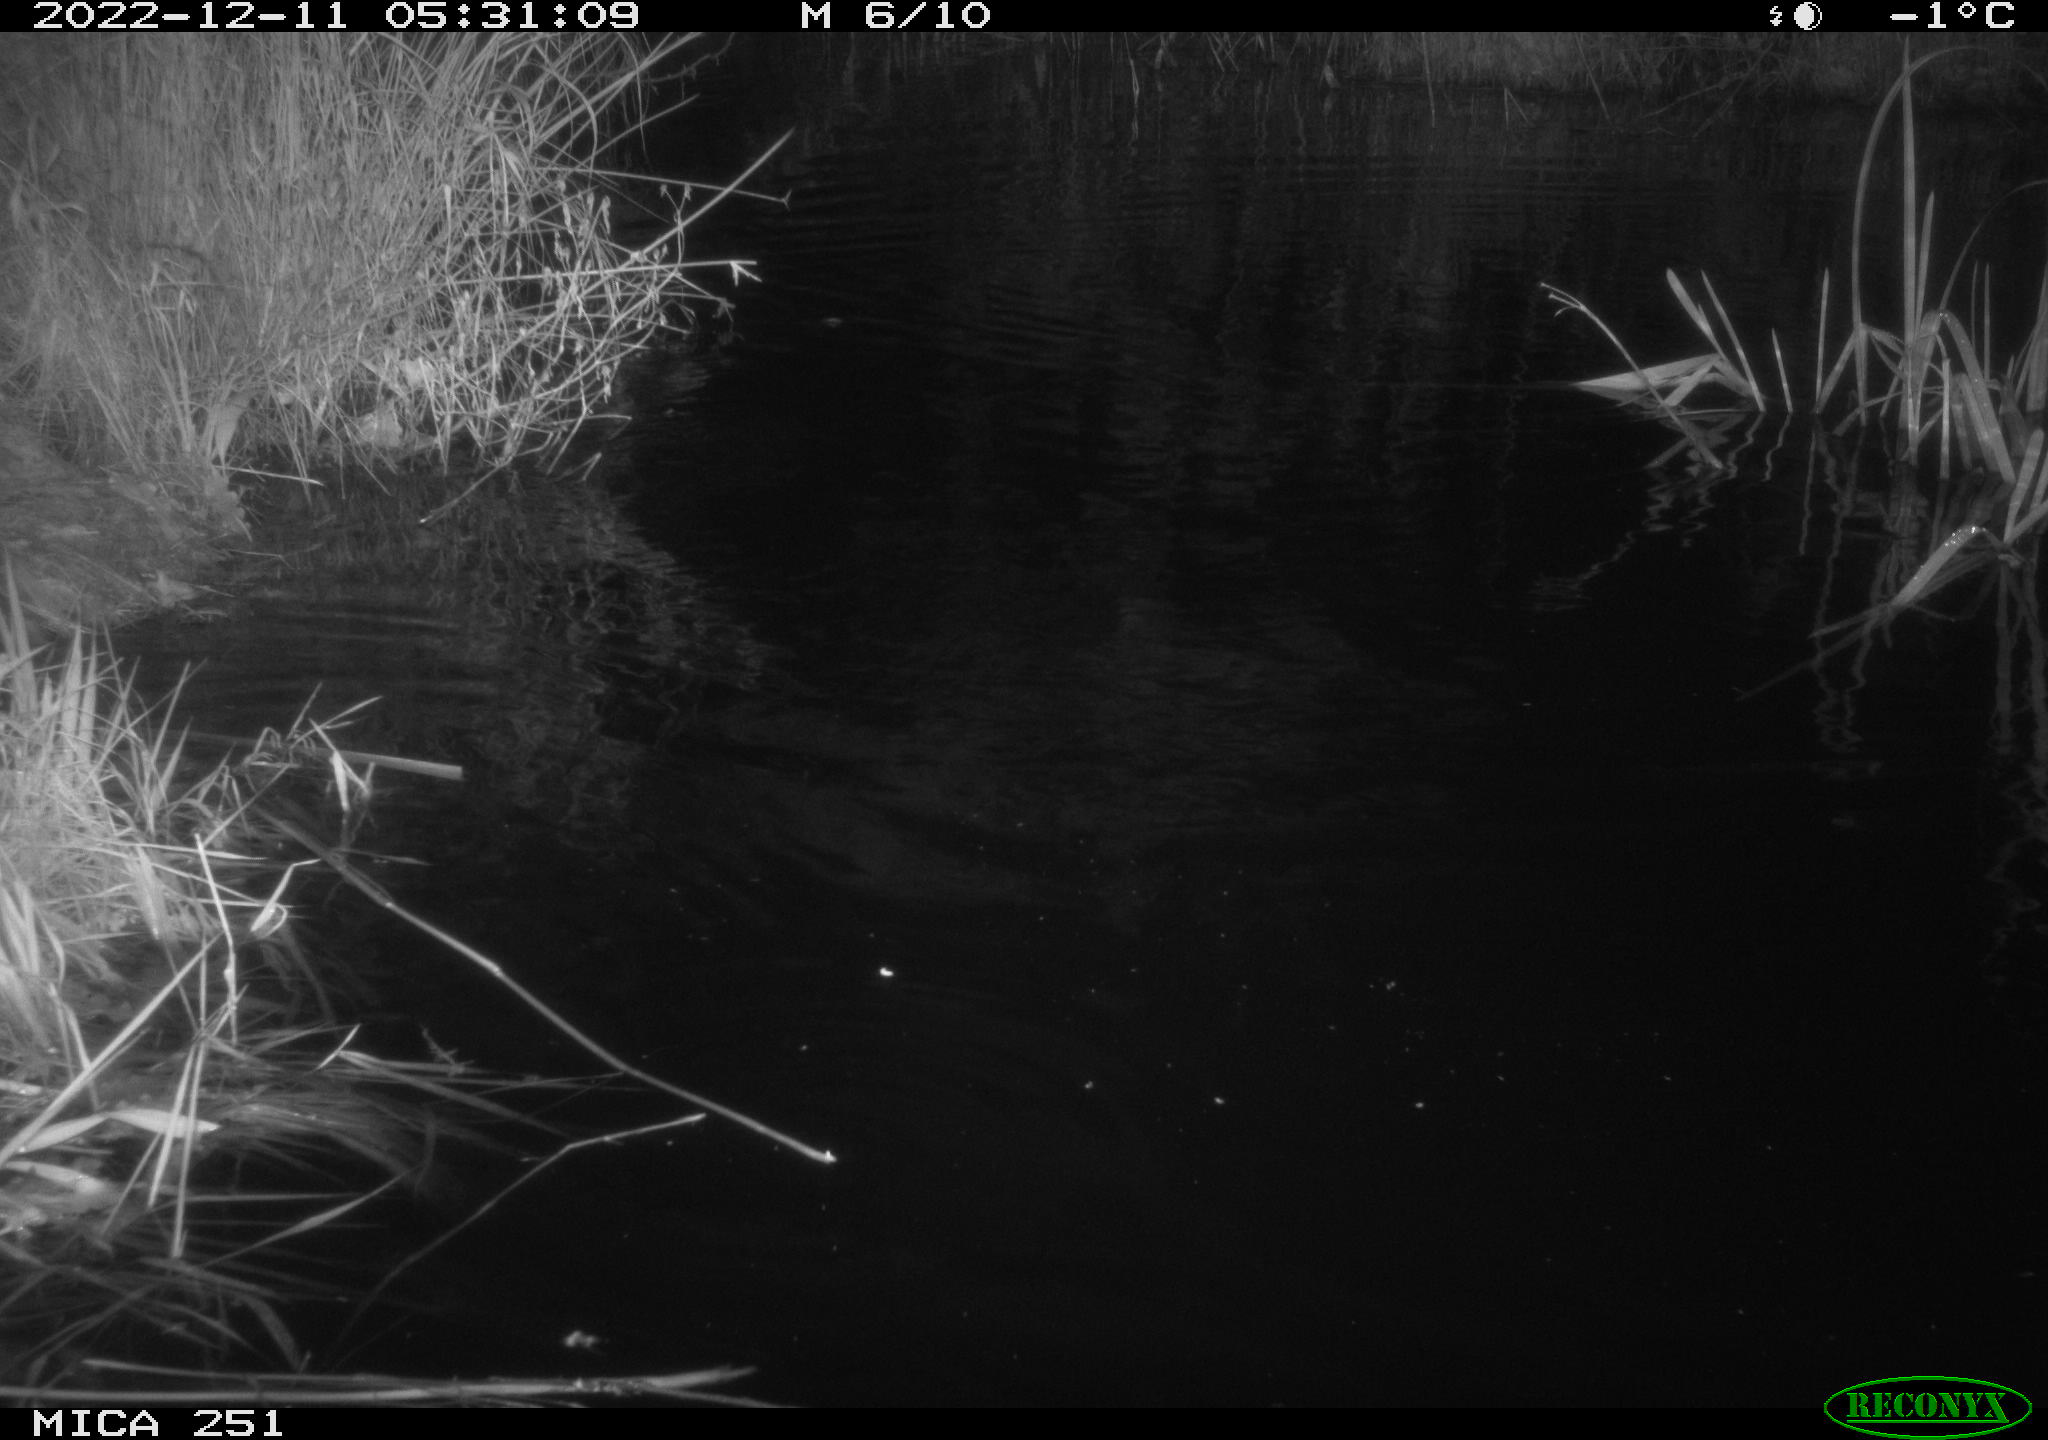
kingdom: Animalia
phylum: Chordata
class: Mammalia
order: Rodentia
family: Castoridae
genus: Castor
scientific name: Castor fiber
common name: Eurasian beaver
